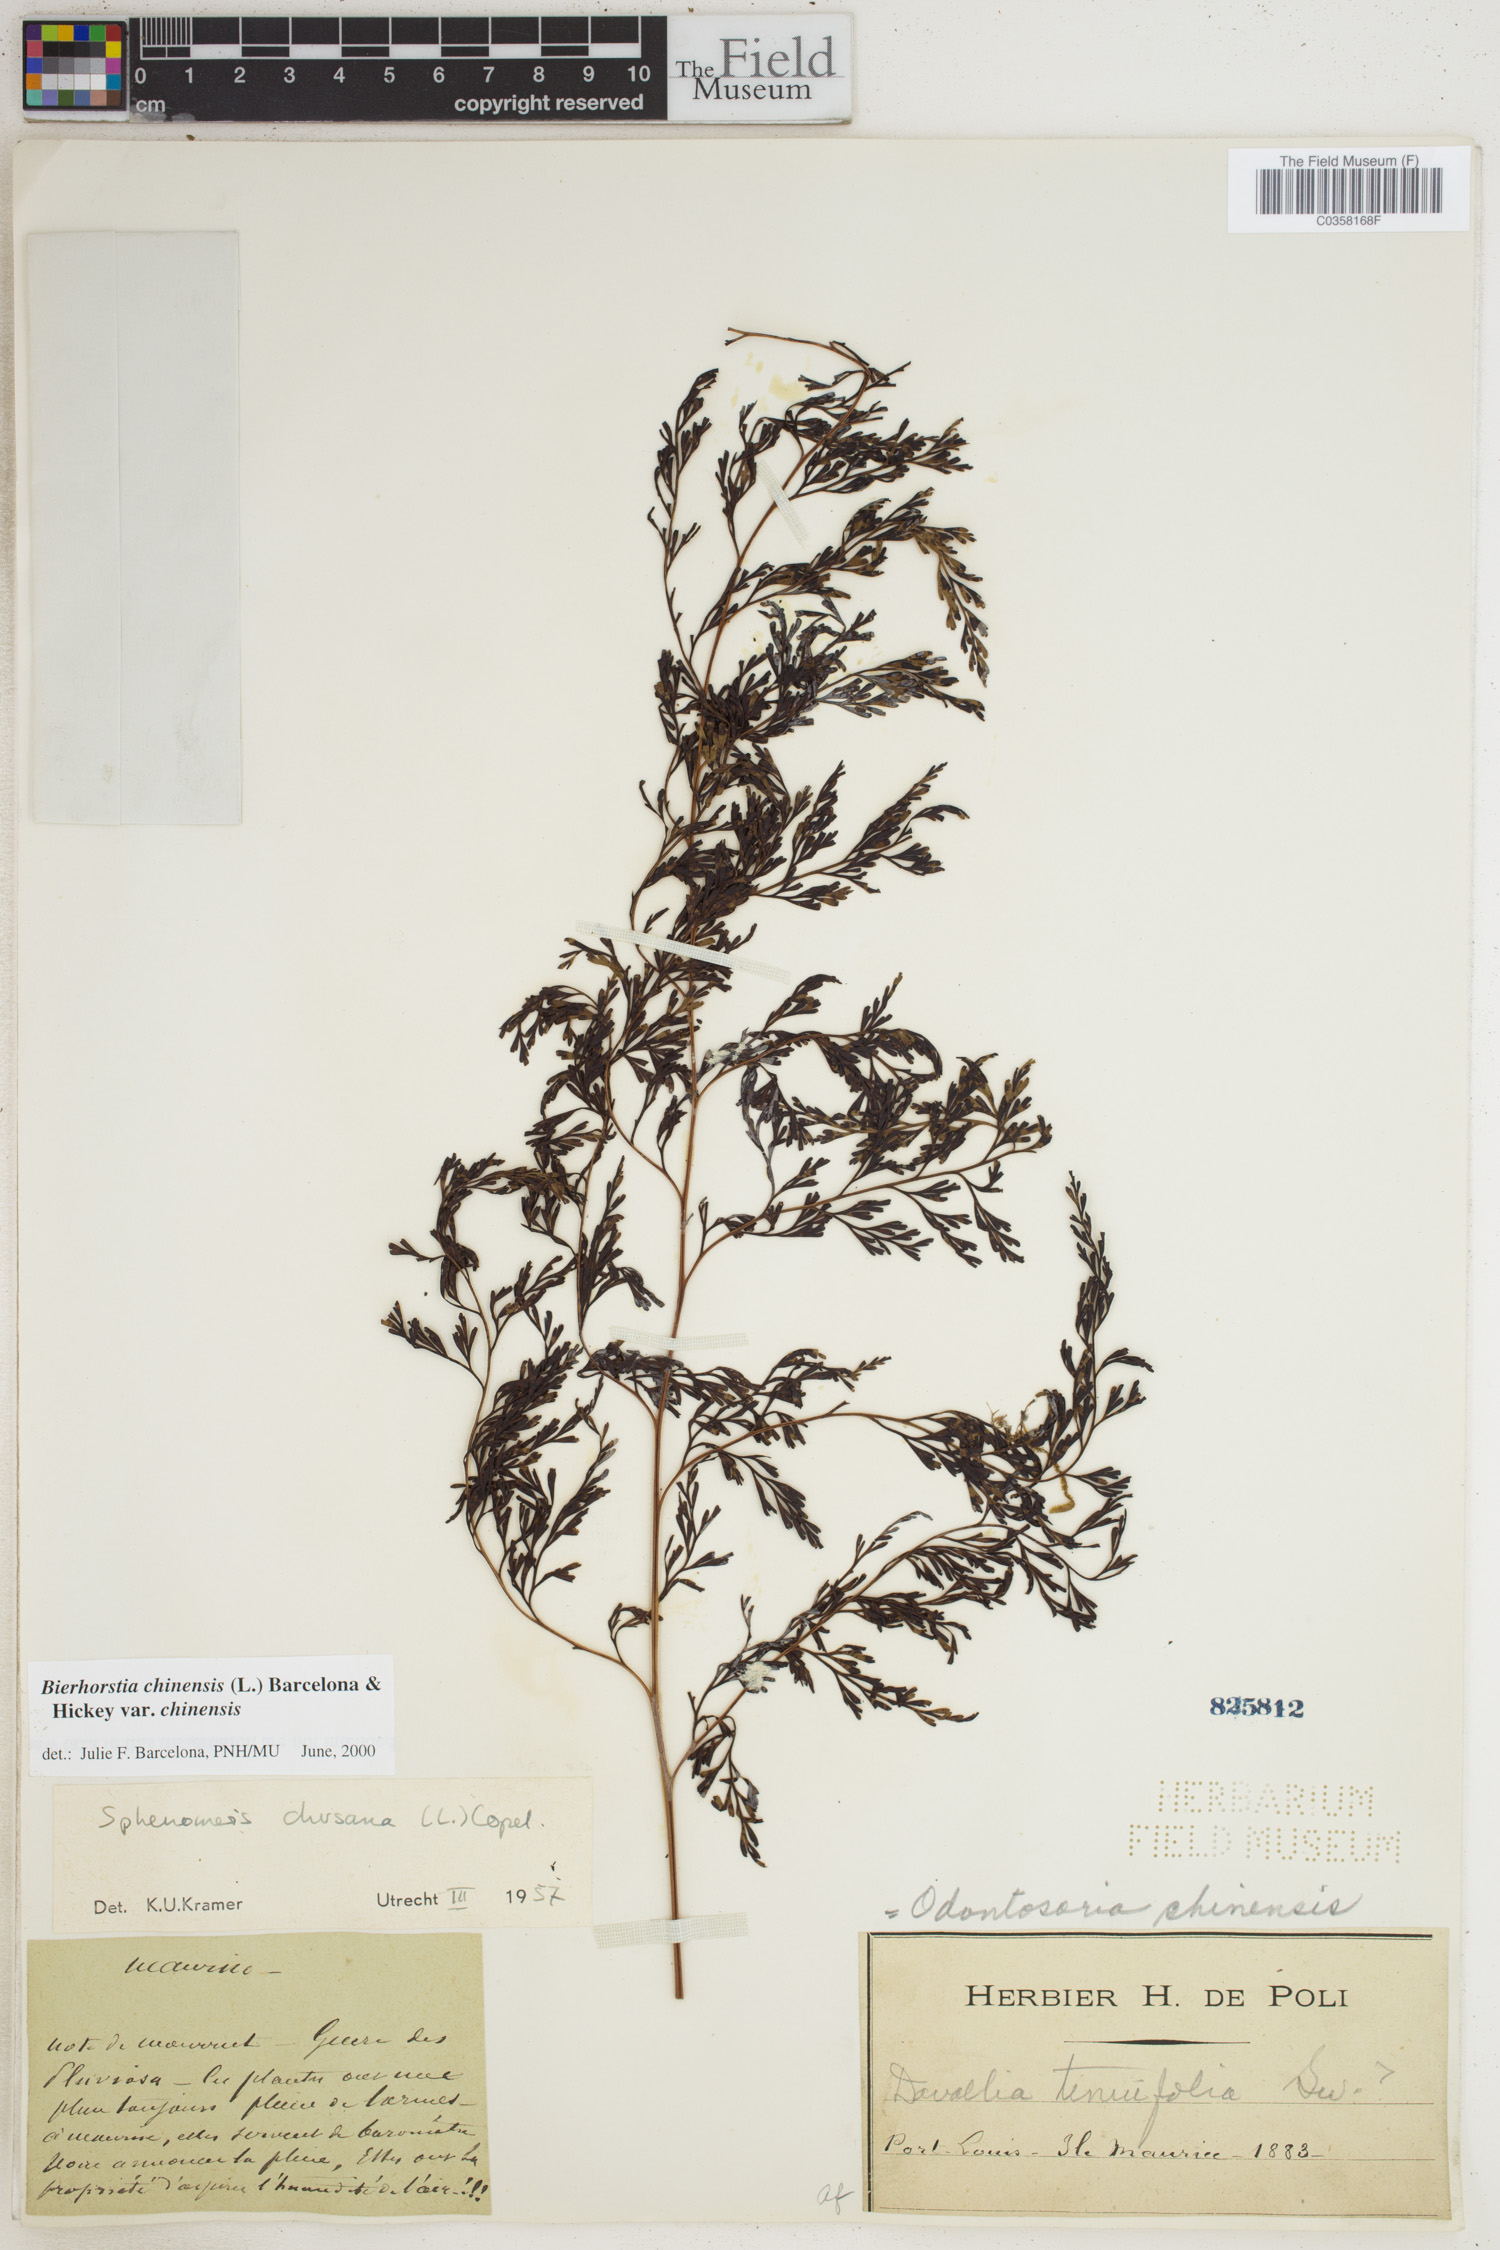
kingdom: Plantae
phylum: Tracheophyta
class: Polypodiopsida
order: Polypodiales
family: Lindsaeaceae
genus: Odontosoria
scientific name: Odontosoria chinensis
